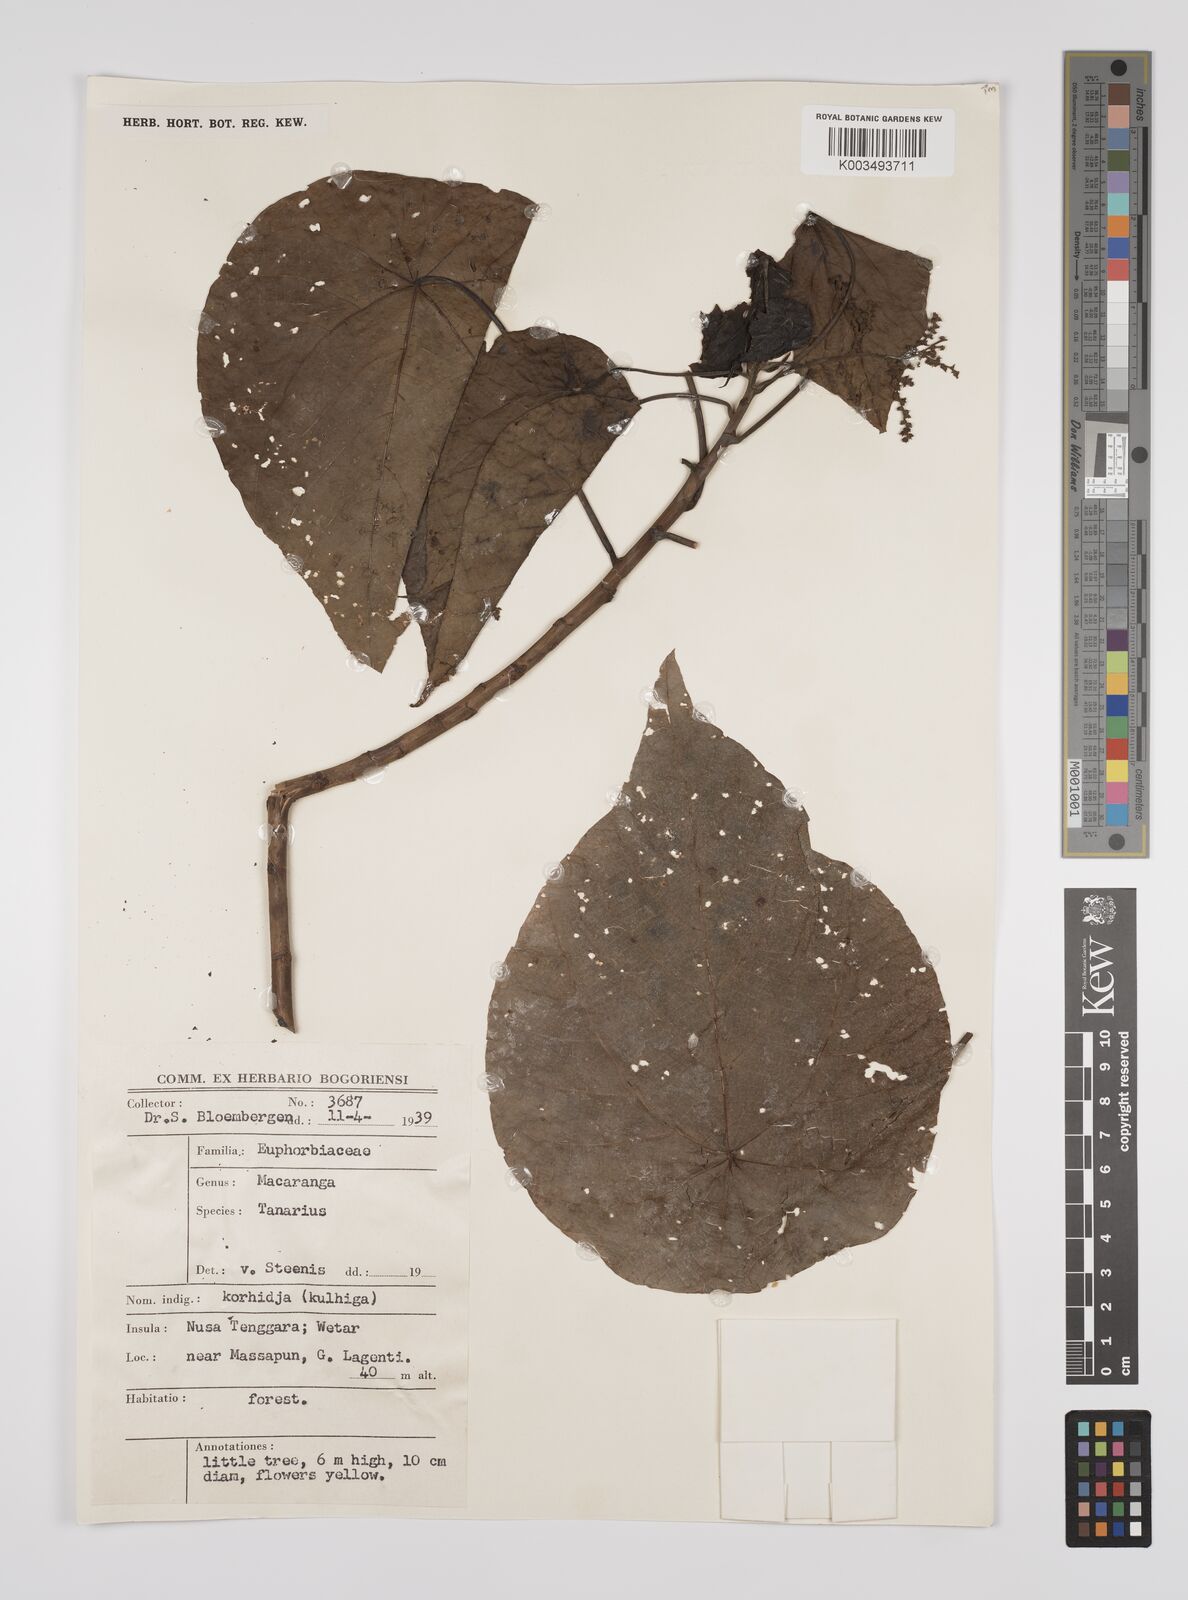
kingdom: Plantae
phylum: Tracheophyta
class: Magnoliopsida
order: Malpighiales
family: Euphorbiaceae
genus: Macaranga
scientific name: Macaranga tanarius
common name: Parasol leaf tree
